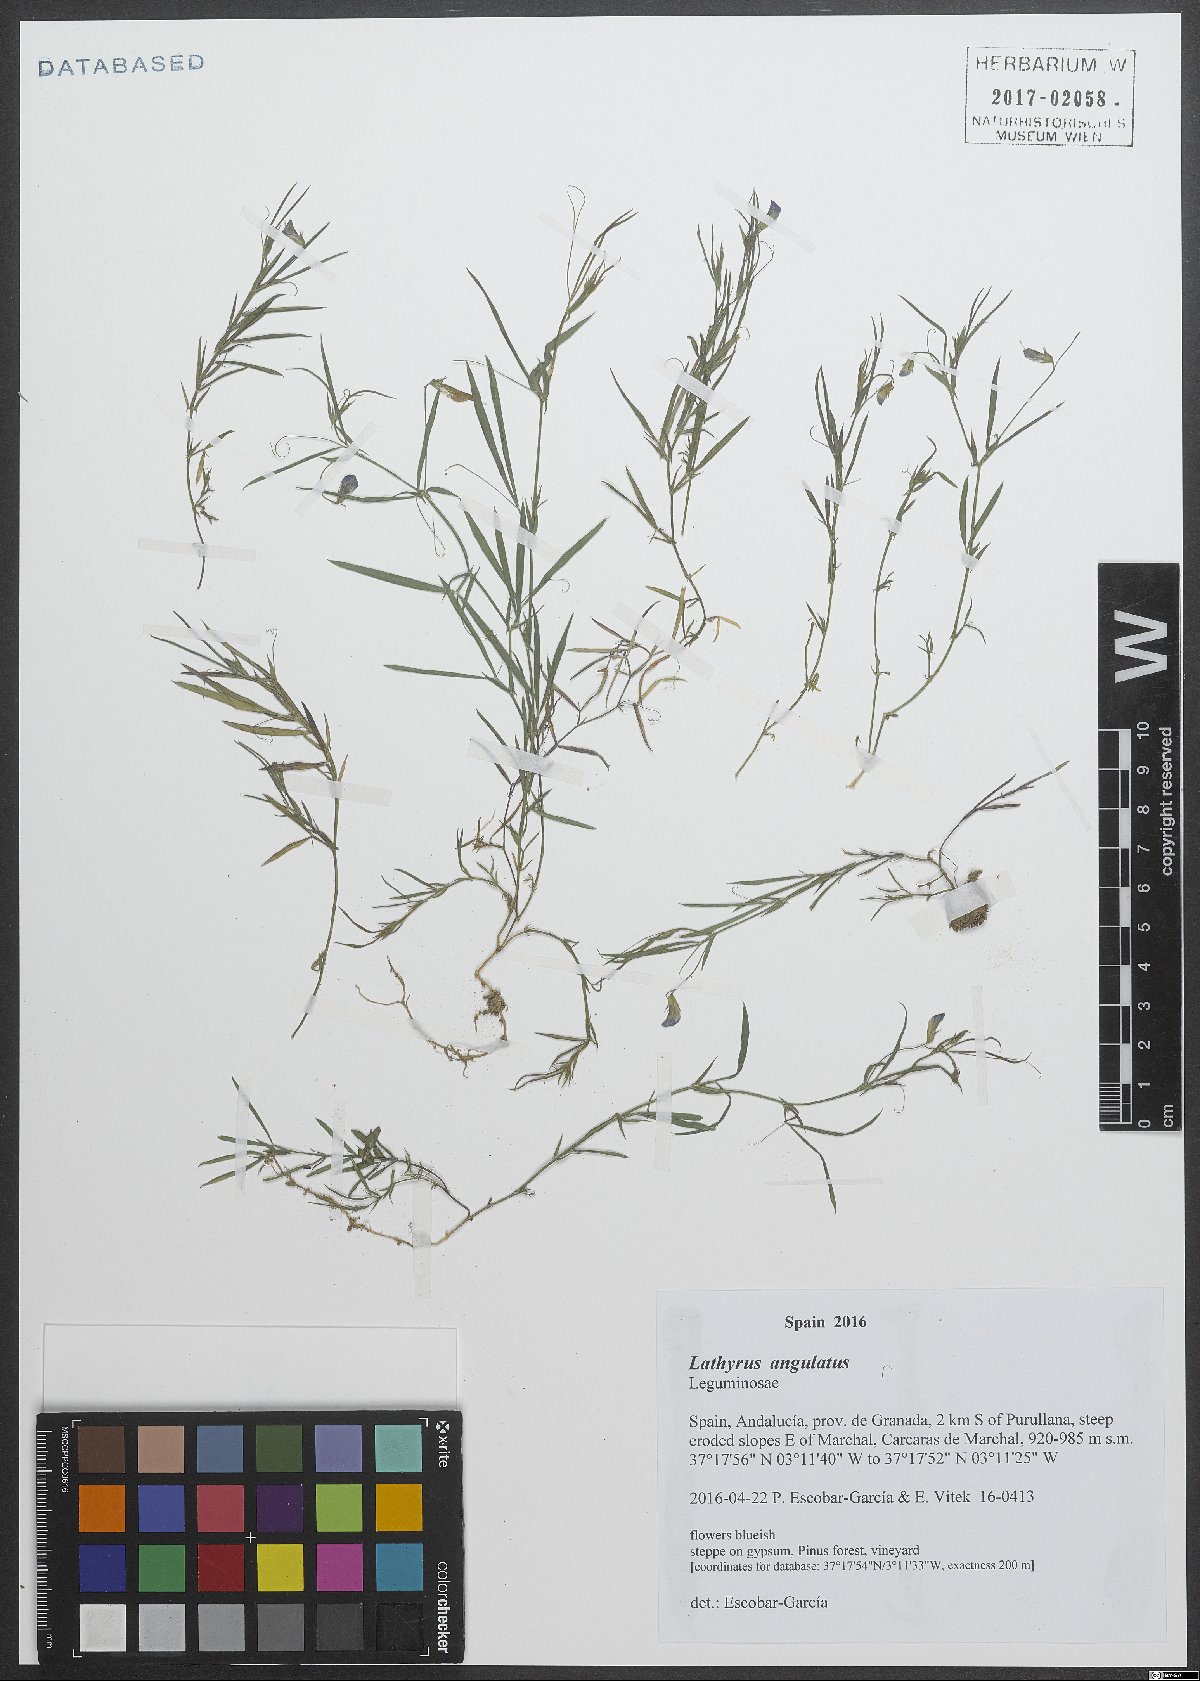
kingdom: Plantae
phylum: Tracheophyta
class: Magnoliopsida
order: Fabales
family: Fabaceae
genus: Lathyrus
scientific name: Lathyrus angulatus
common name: Angular pea
